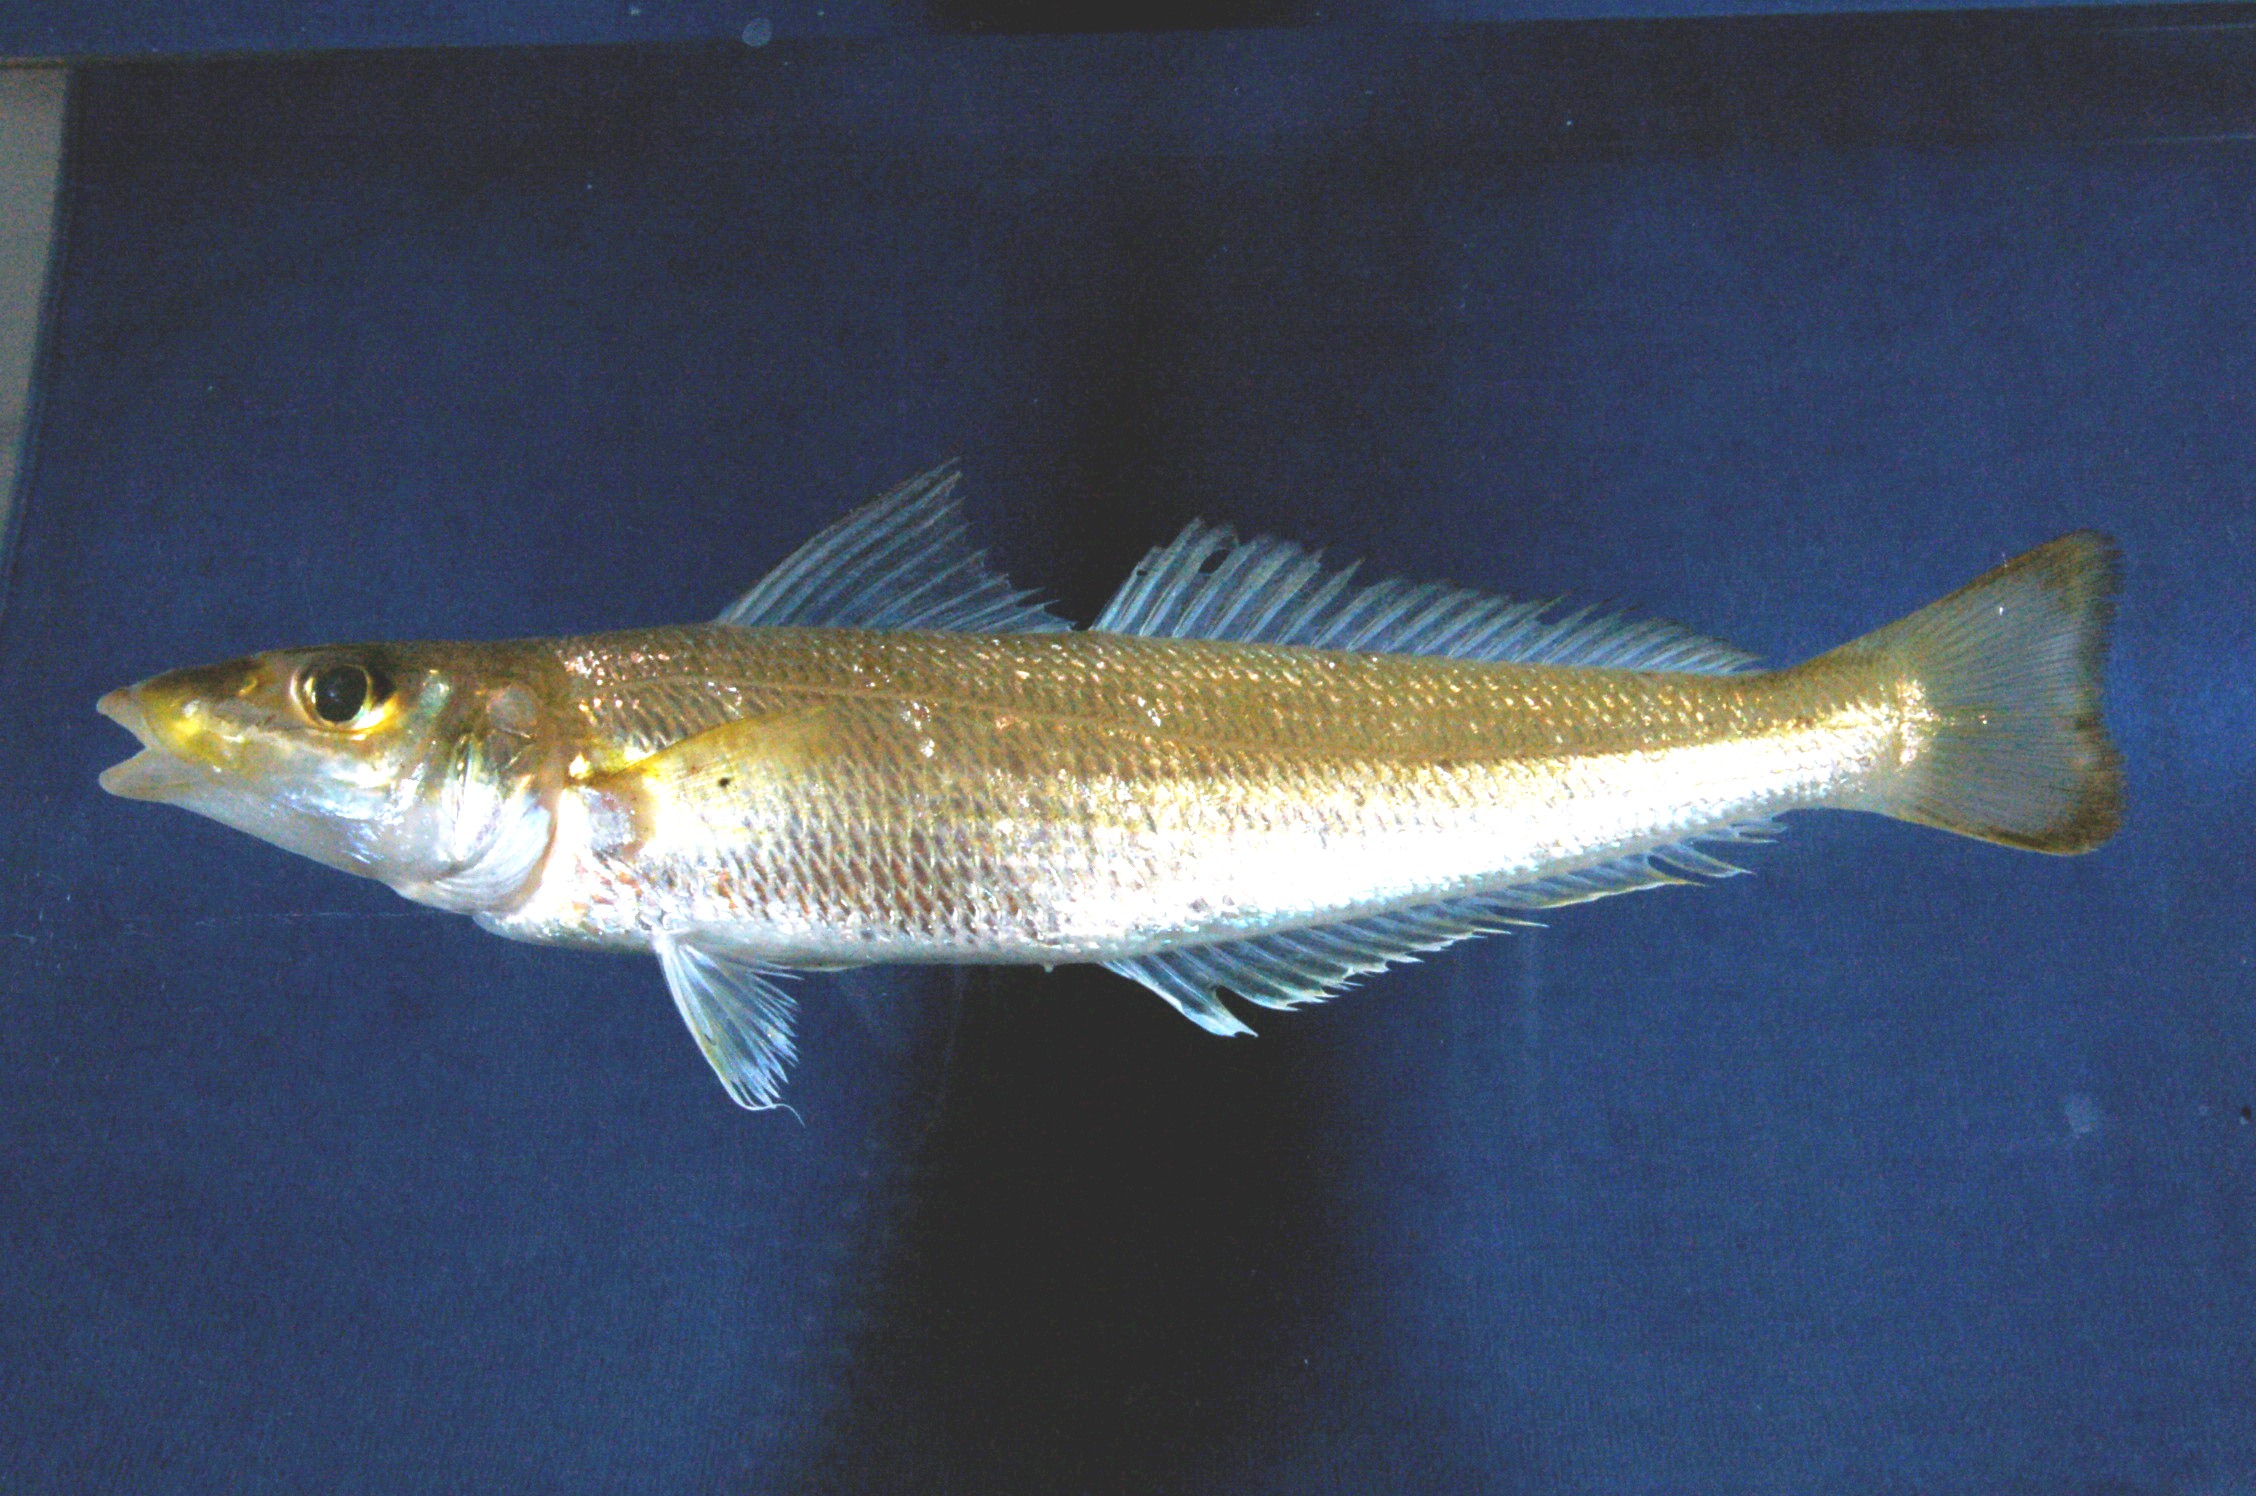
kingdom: Animalia
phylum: Chordata
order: Perciformes
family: Sillaginidae
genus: Sillago
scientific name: Sillago arabica
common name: Arabian sillago
